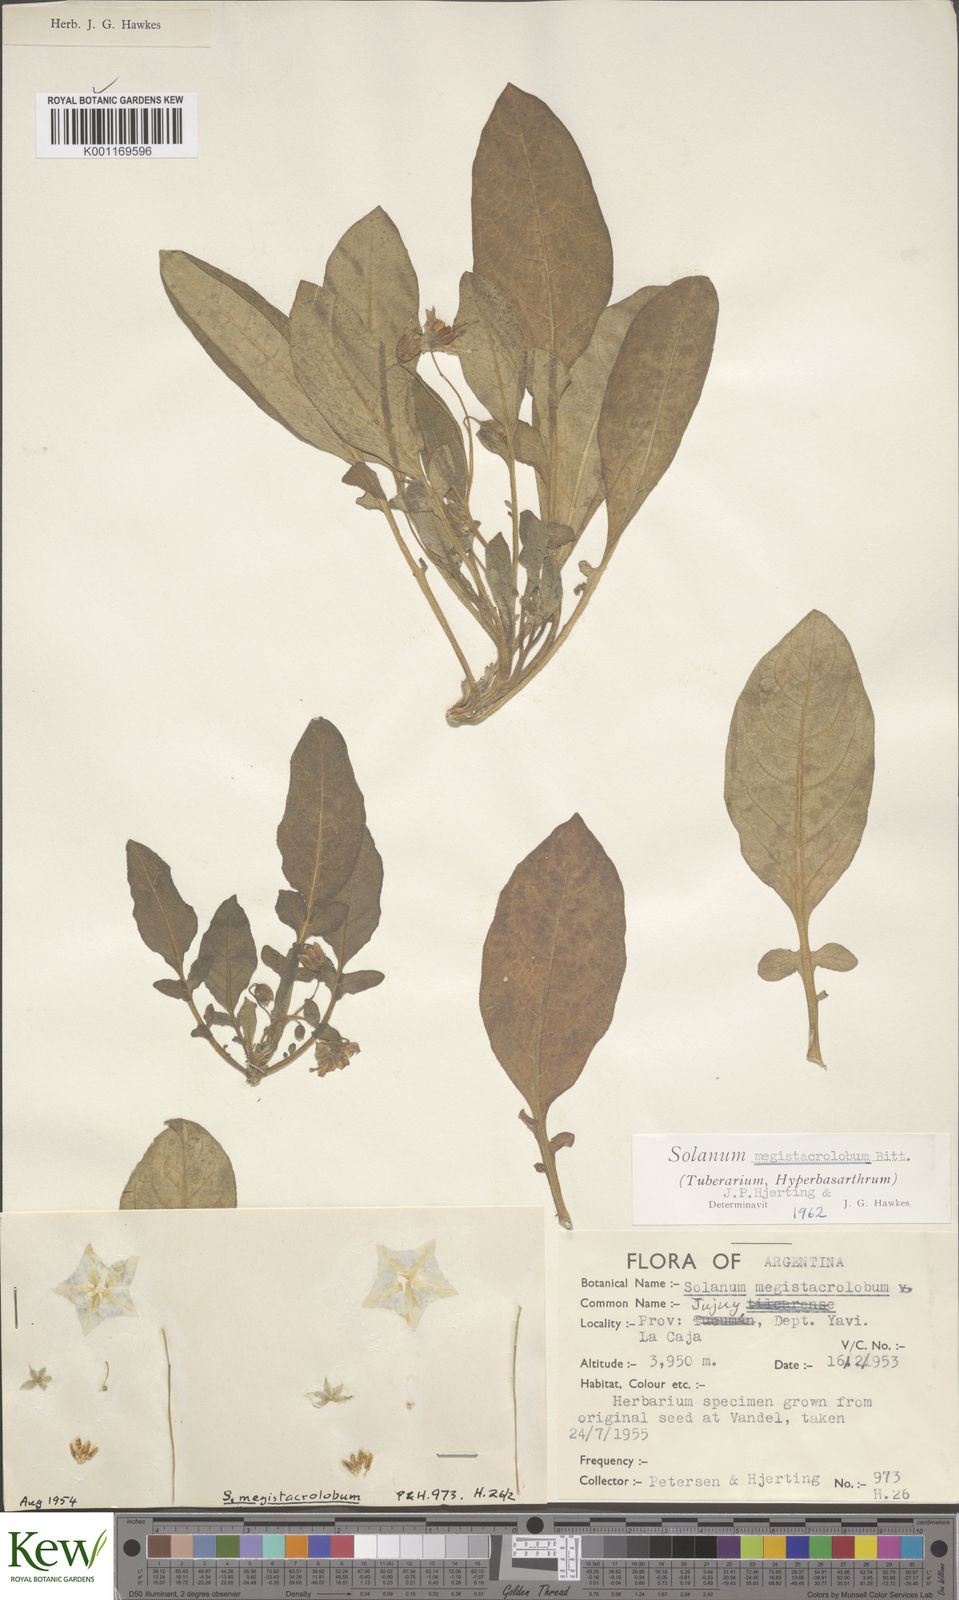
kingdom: Plantae
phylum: Tracheophyta
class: Magnoliopsida
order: Solanales
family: Solanaceae
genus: Solanum
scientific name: Solanum boliviense
